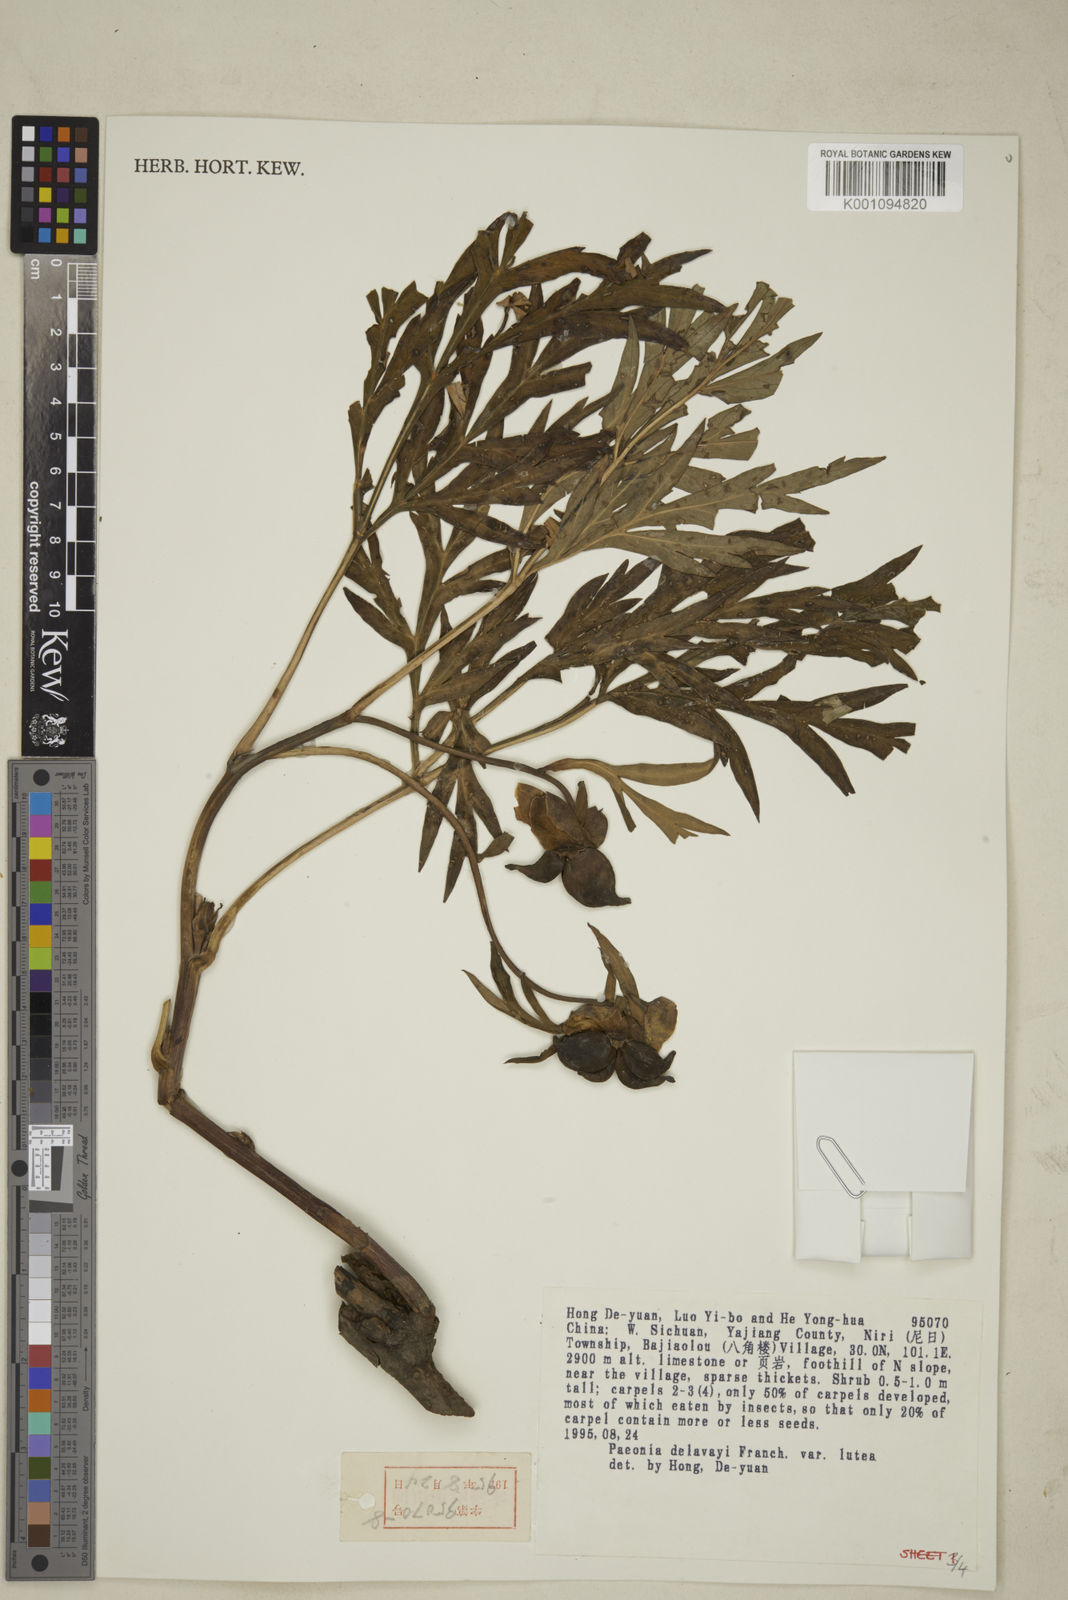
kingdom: Plantae
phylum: Tracheophyta
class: Magnoliopsida
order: Saxifragales
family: Paeoniaceae
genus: Paeonia
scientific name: Paeonia delavayi
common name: Dian mu dan
